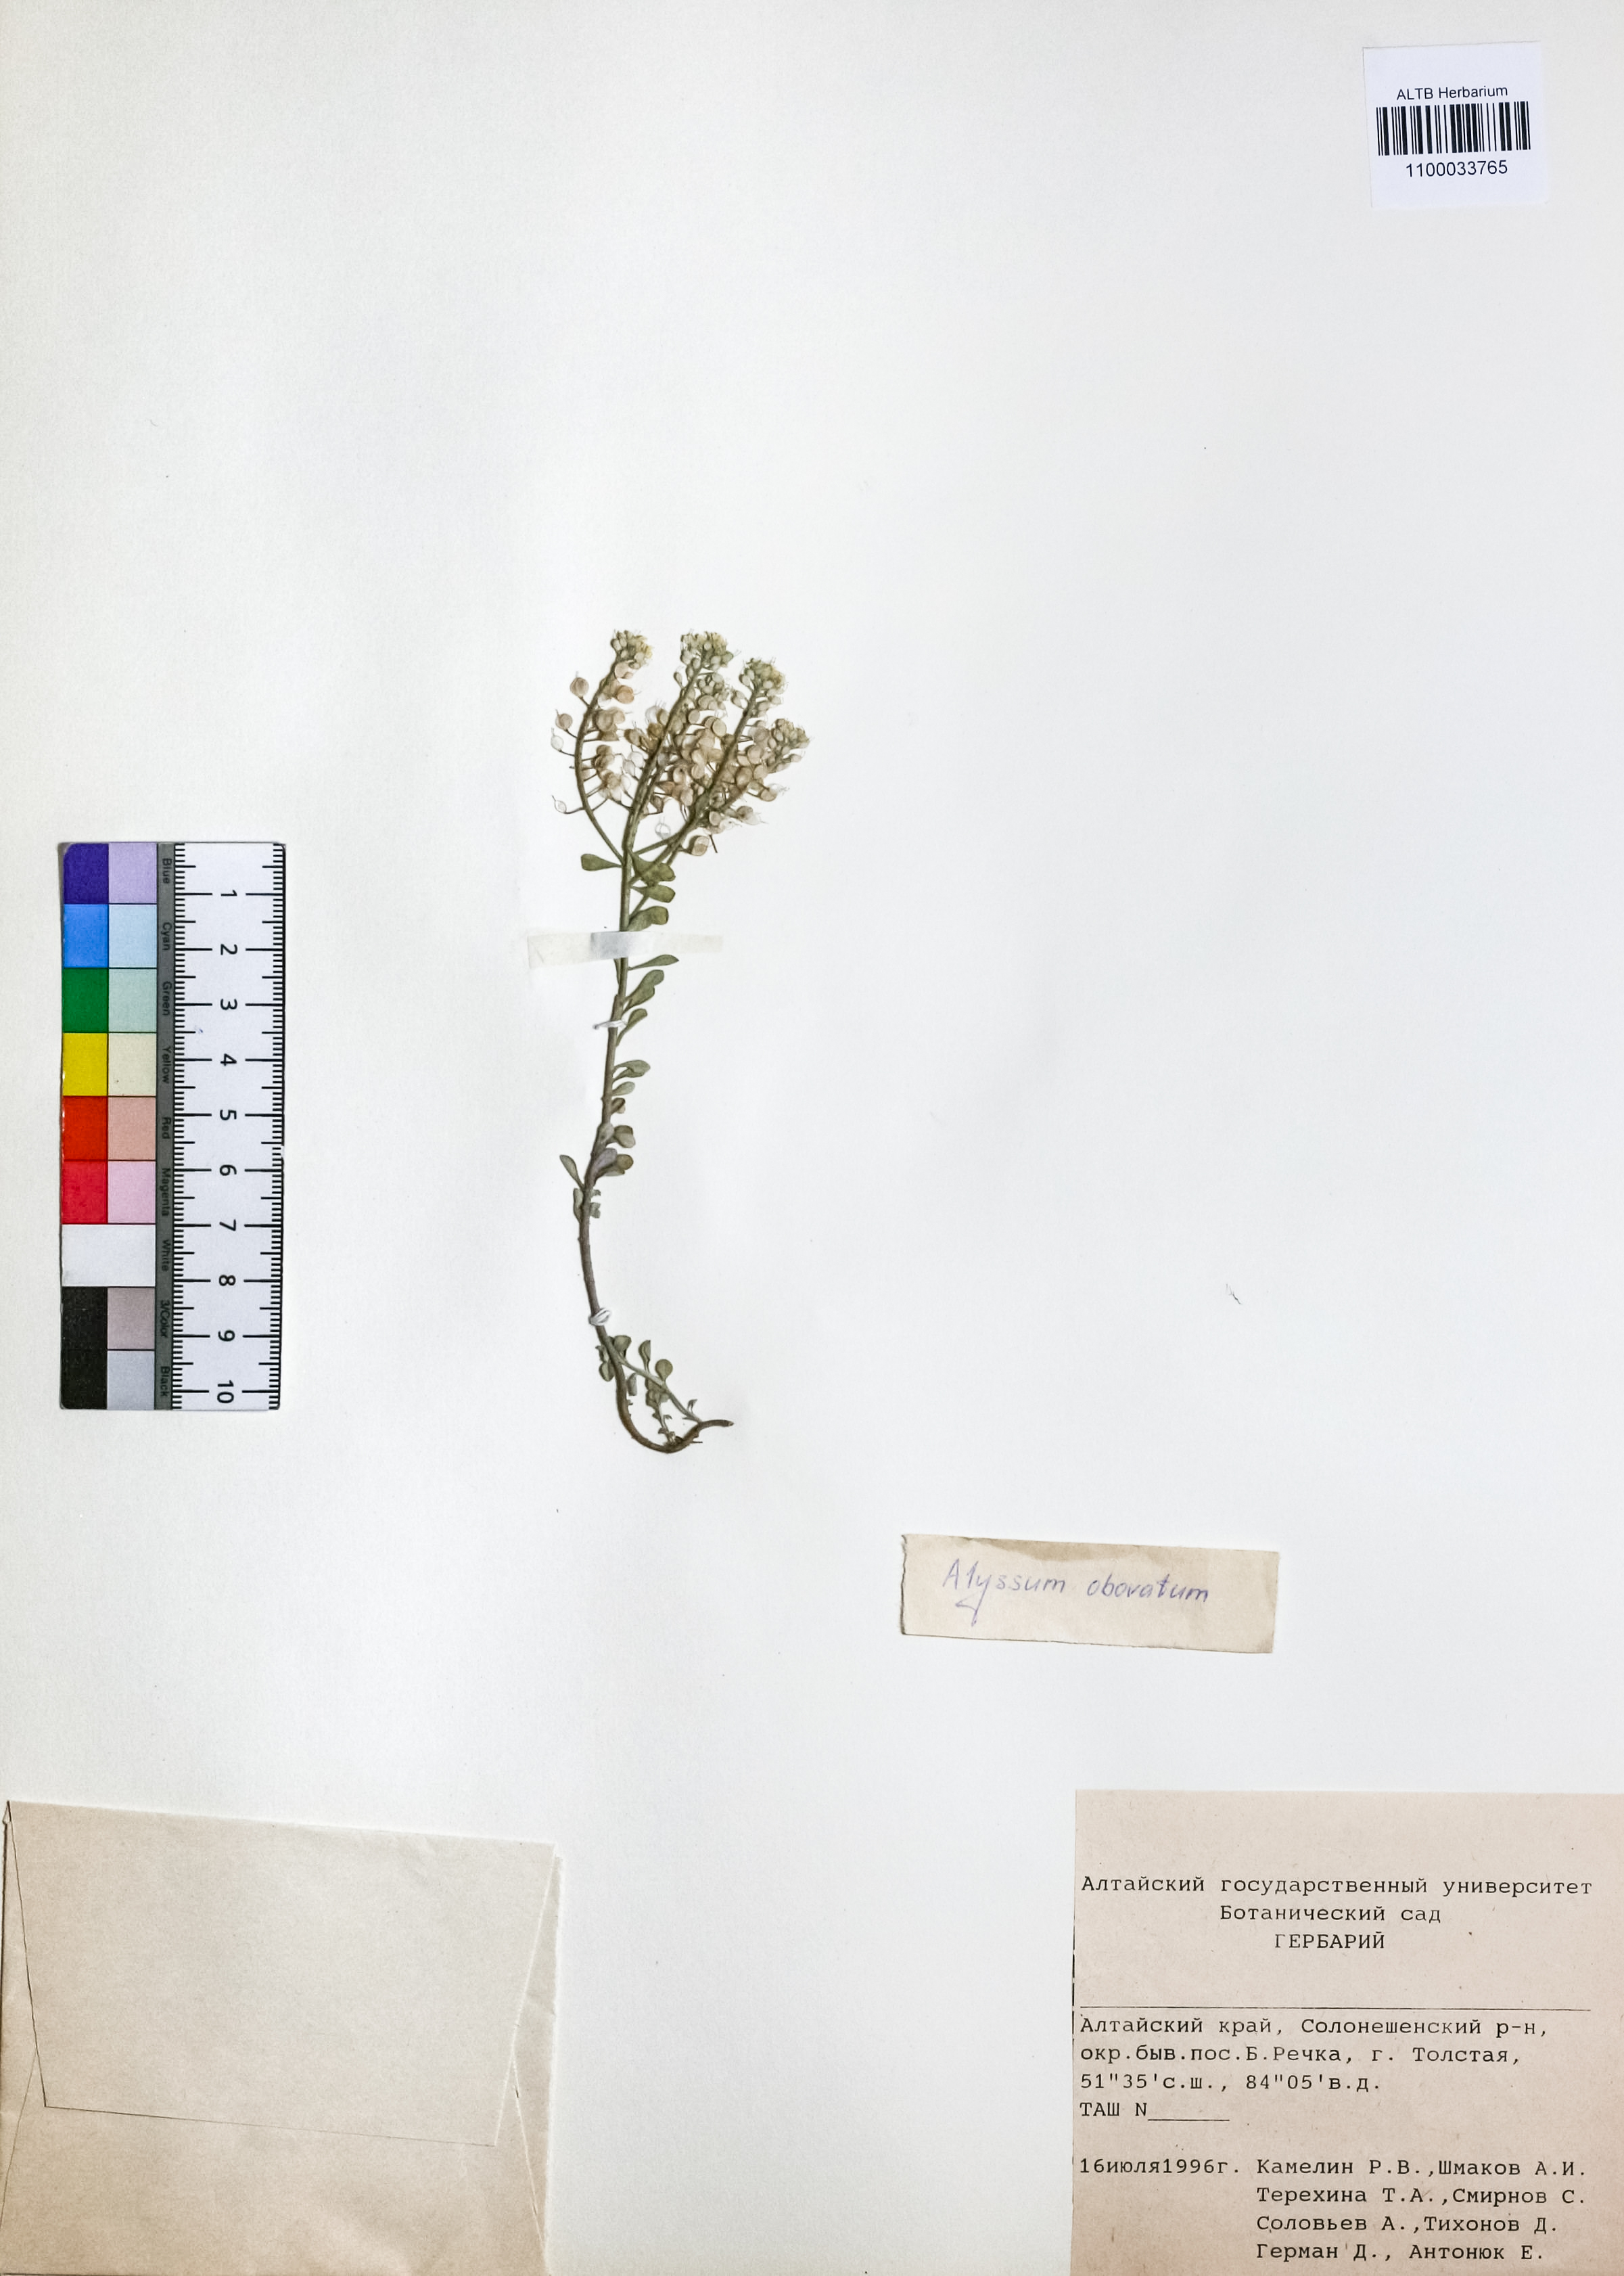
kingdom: Plantae
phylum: Tracheophyta
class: Magnoliopsida
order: Brassicales
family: Brassicaceae
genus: Odontarrhena
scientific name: Odontarrhena obovata
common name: American alyssum
